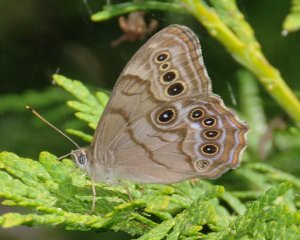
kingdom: Animalia
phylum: Arthropoda
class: Insecta
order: Lepidoptera
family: Nymphalidae
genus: Lethe
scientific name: Lethe anthedon
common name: Northern Pearly-Eye
